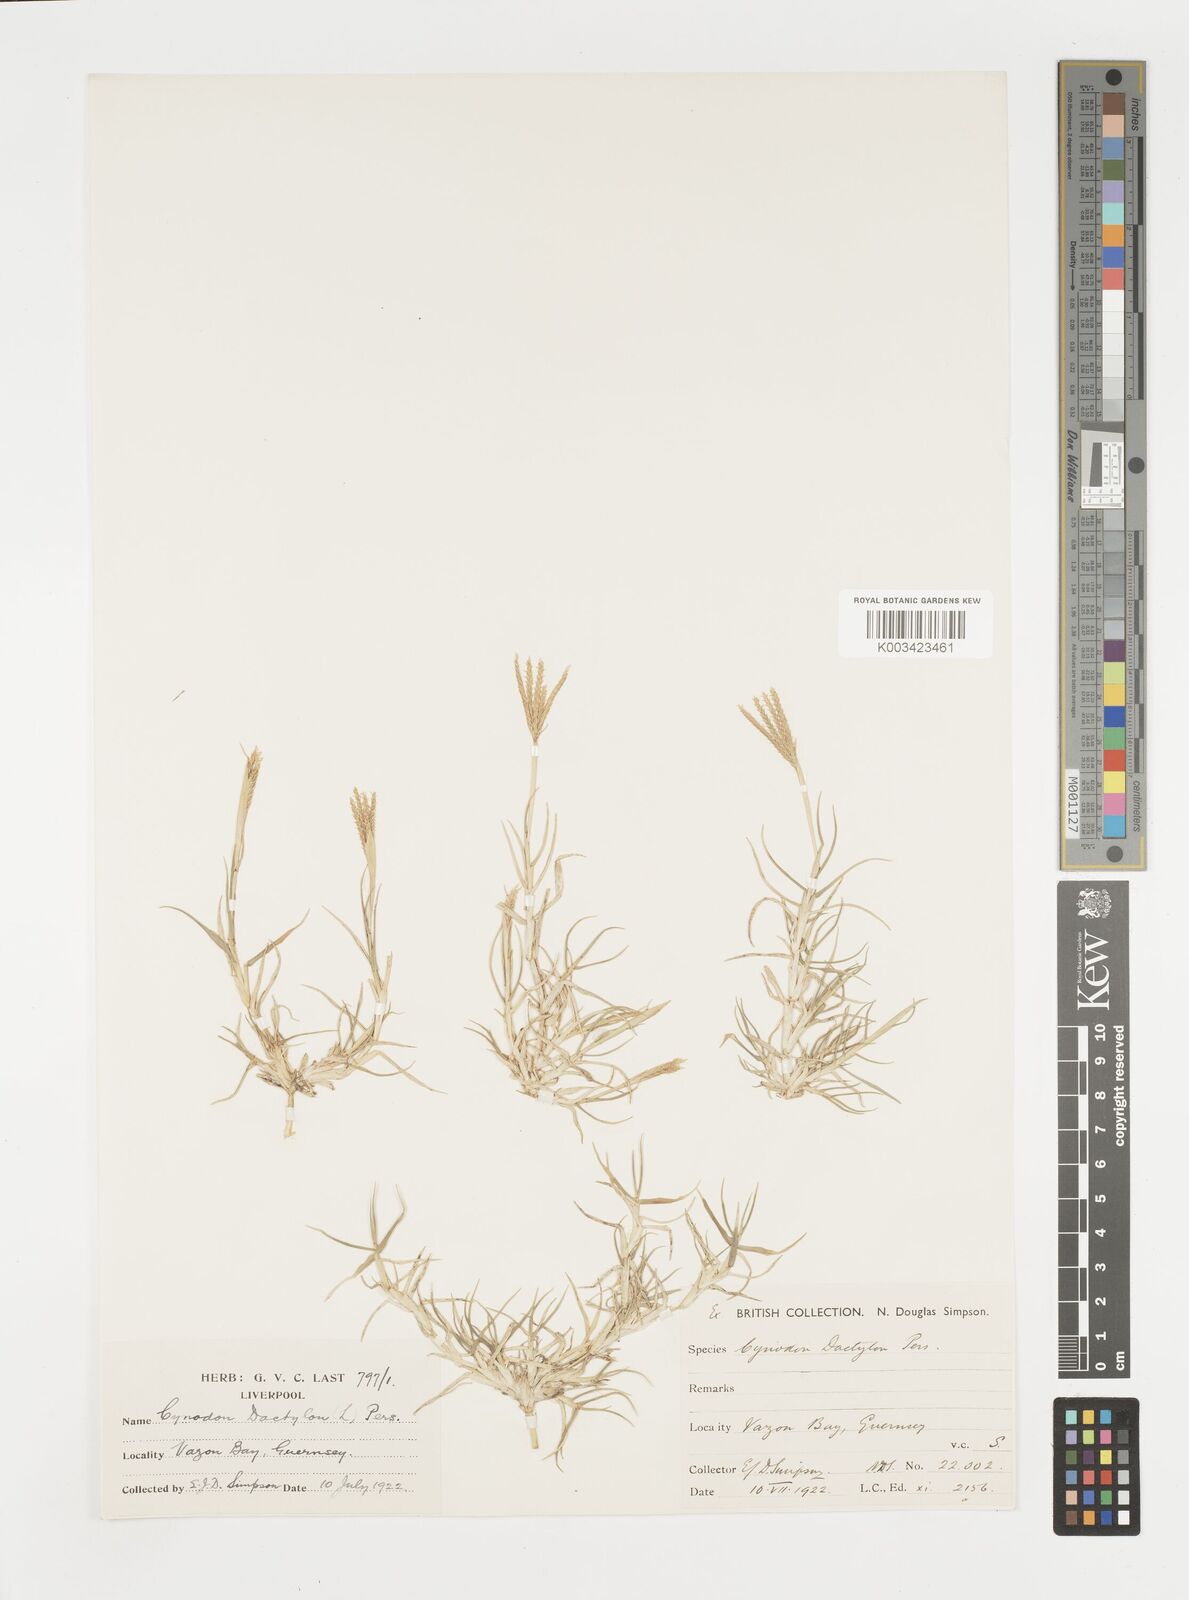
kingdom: Plantae
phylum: Tracheophyta
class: Liliopsida
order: Poales
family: Poaceae
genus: Cynodon
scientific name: Cynodon dactylon
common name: Bermuda grass
